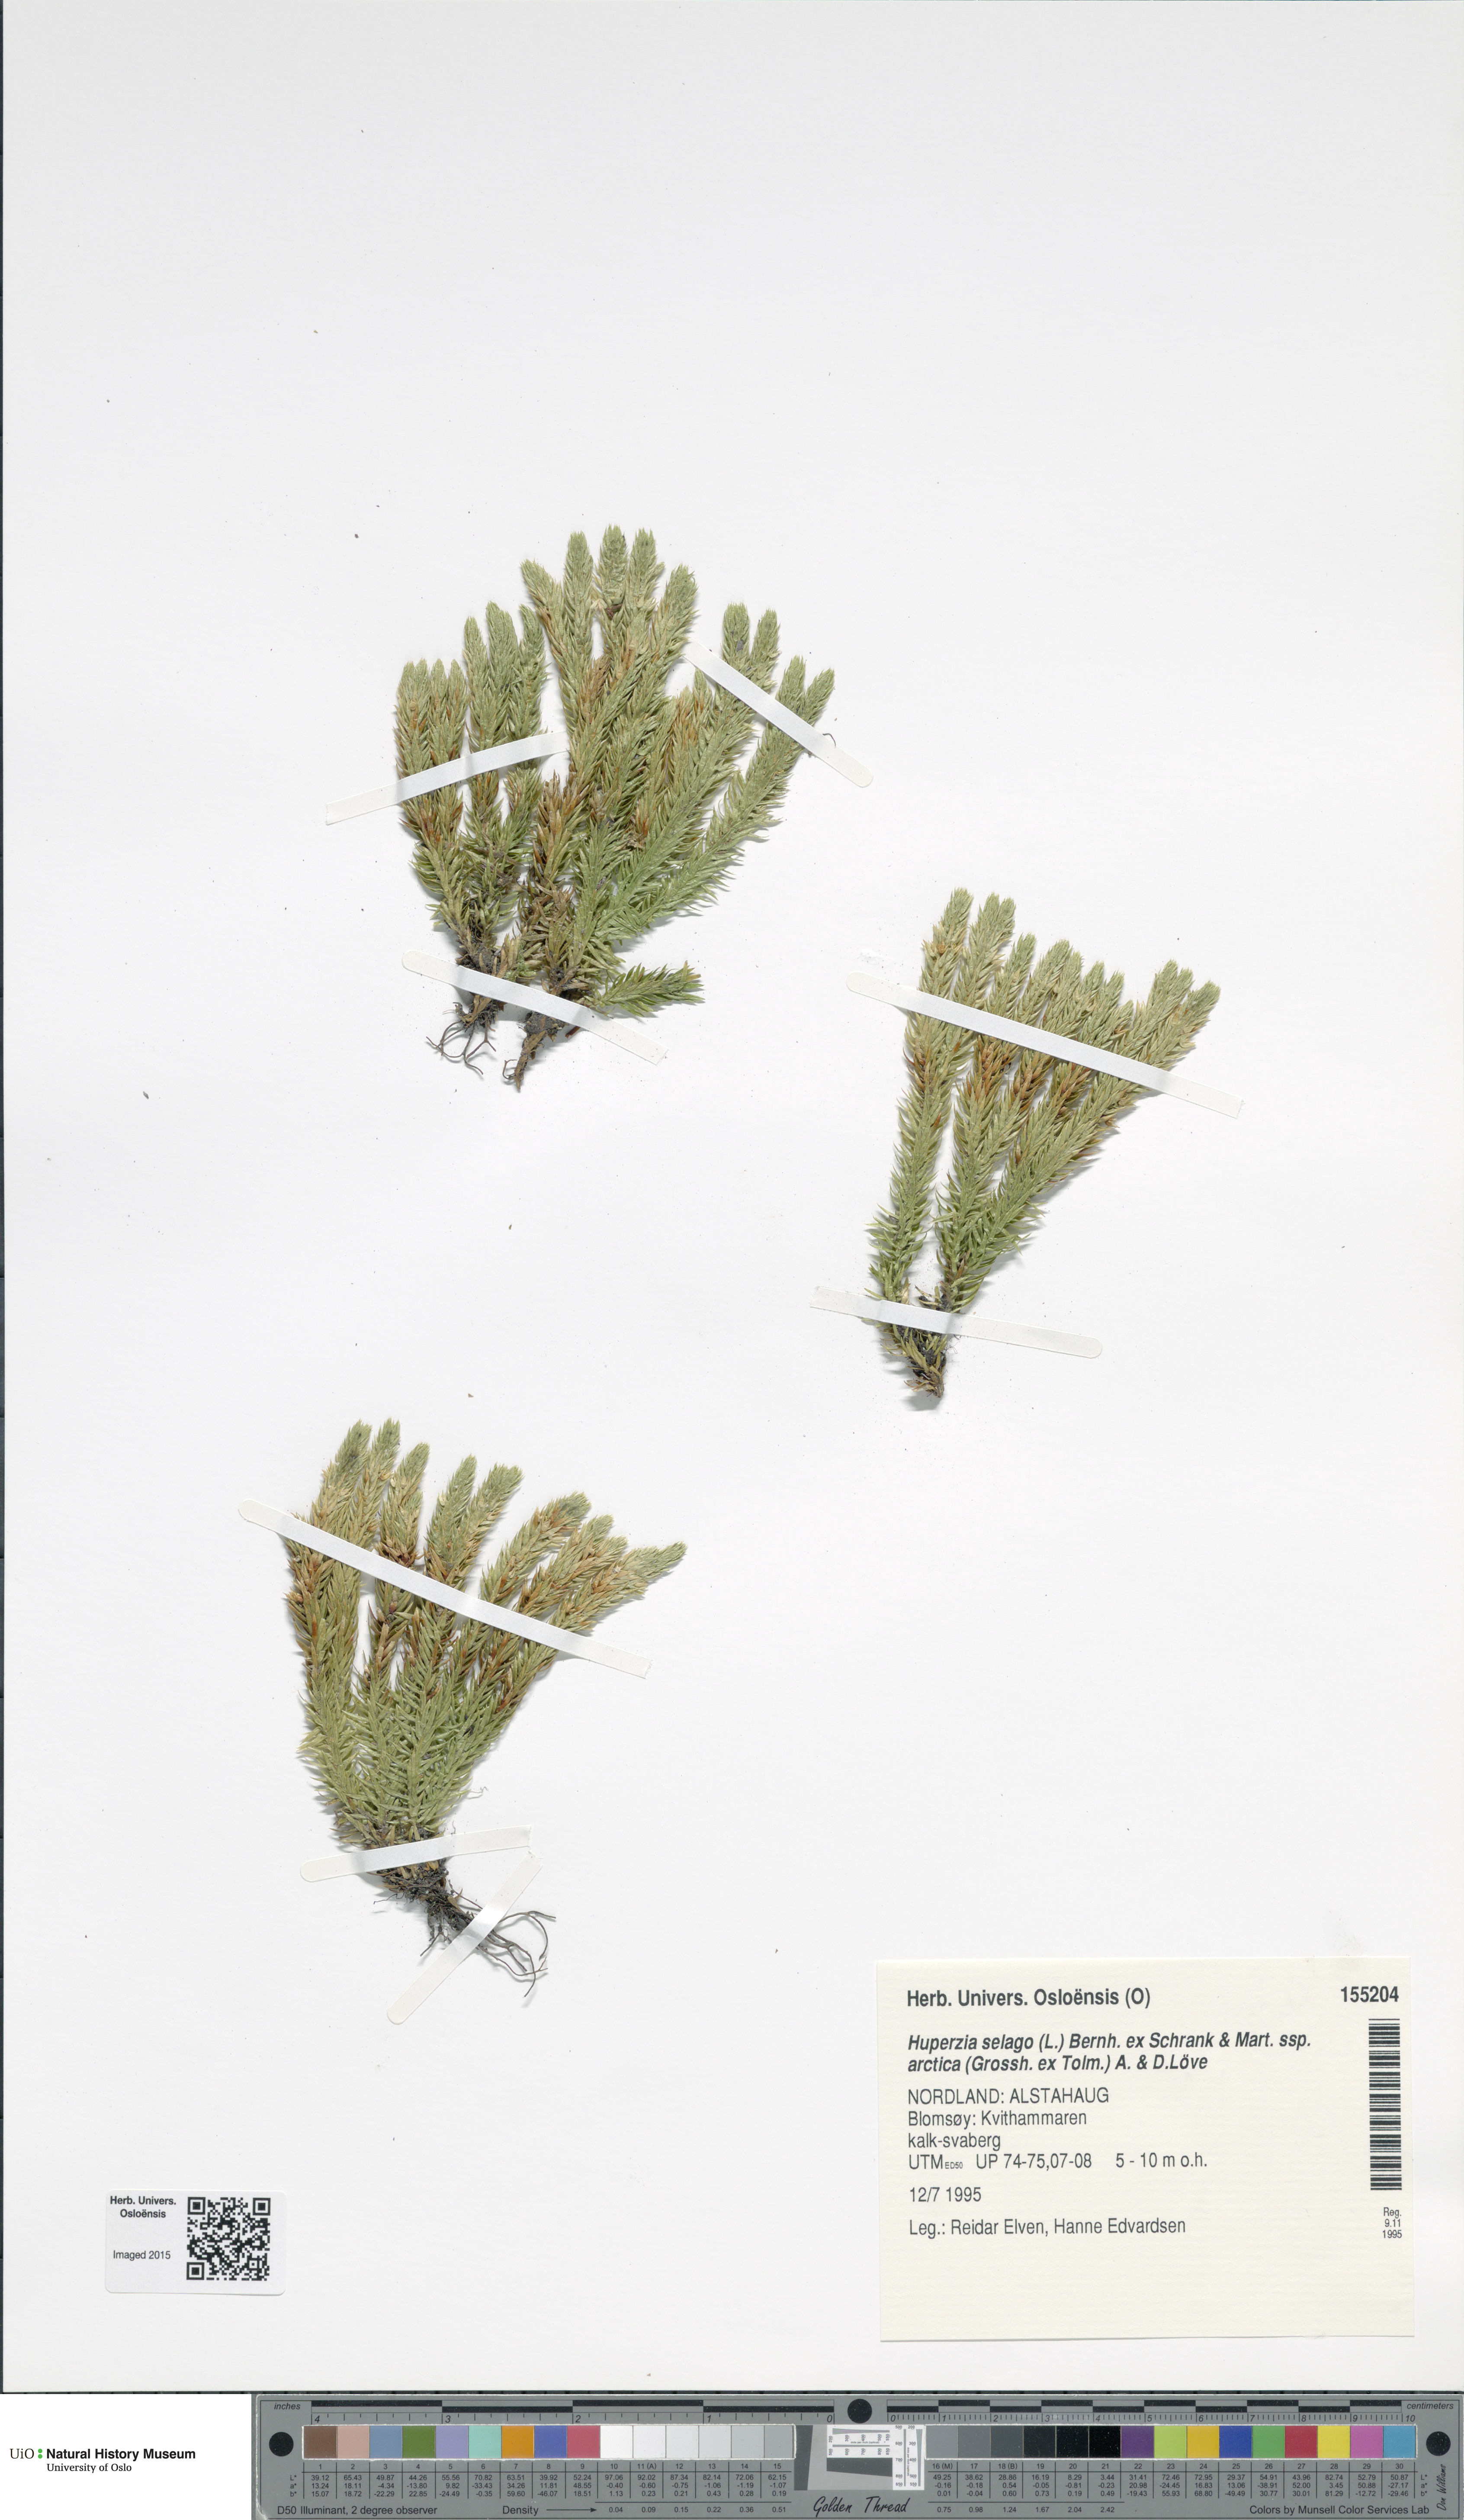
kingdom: Plantae
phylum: Tracheophyta
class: Lycopodiopsida
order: Lycopodiales
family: Lycopodiaceae
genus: Huperzia
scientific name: Huperzia selago
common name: Northern firmoss
